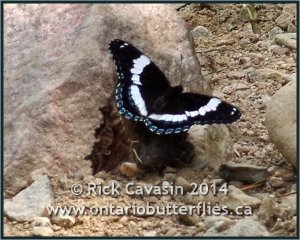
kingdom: Animalia
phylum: Arthropoda
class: Insecta
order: Lepidoptera
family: Nymphalidae
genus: Limenitis
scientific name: Limenitis arthemis
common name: Red-spotted Admiral
